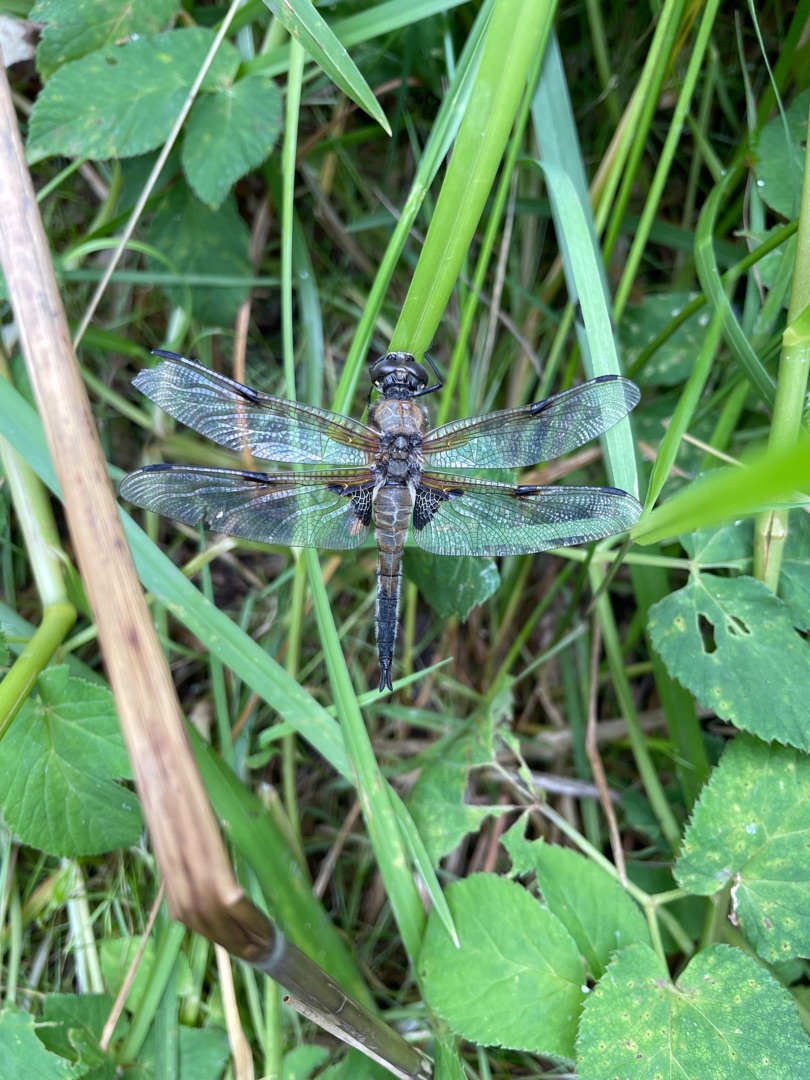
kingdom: Animalia
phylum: Arthropoda
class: Insecta
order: Odonata
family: Libellulidae
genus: Libellula
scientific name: Libellula quadrimaculata
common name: Fireplettet libel
